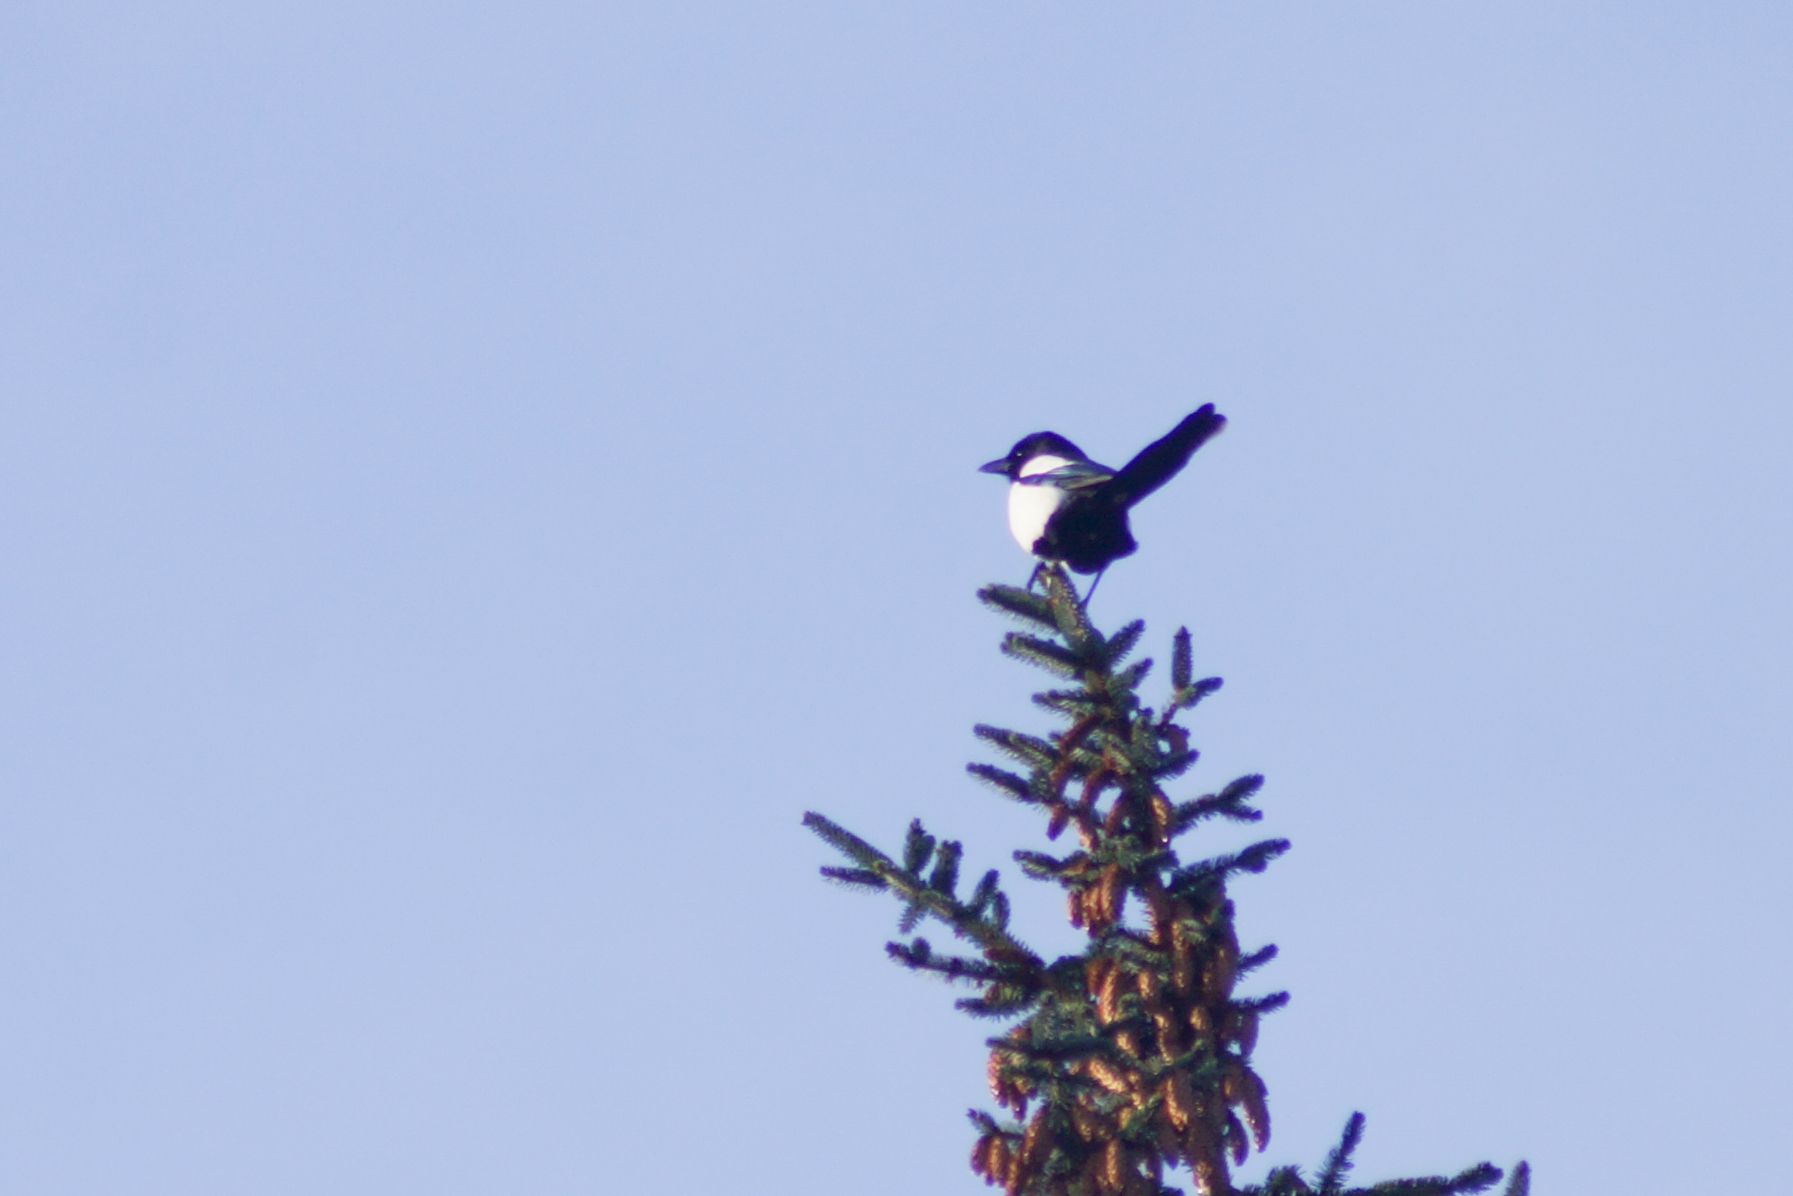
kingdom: Animalia
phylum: Chordata
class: Aves
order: Passeriformes
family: Corvidae
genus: Pica
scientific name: Pica pica
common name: Husskade
